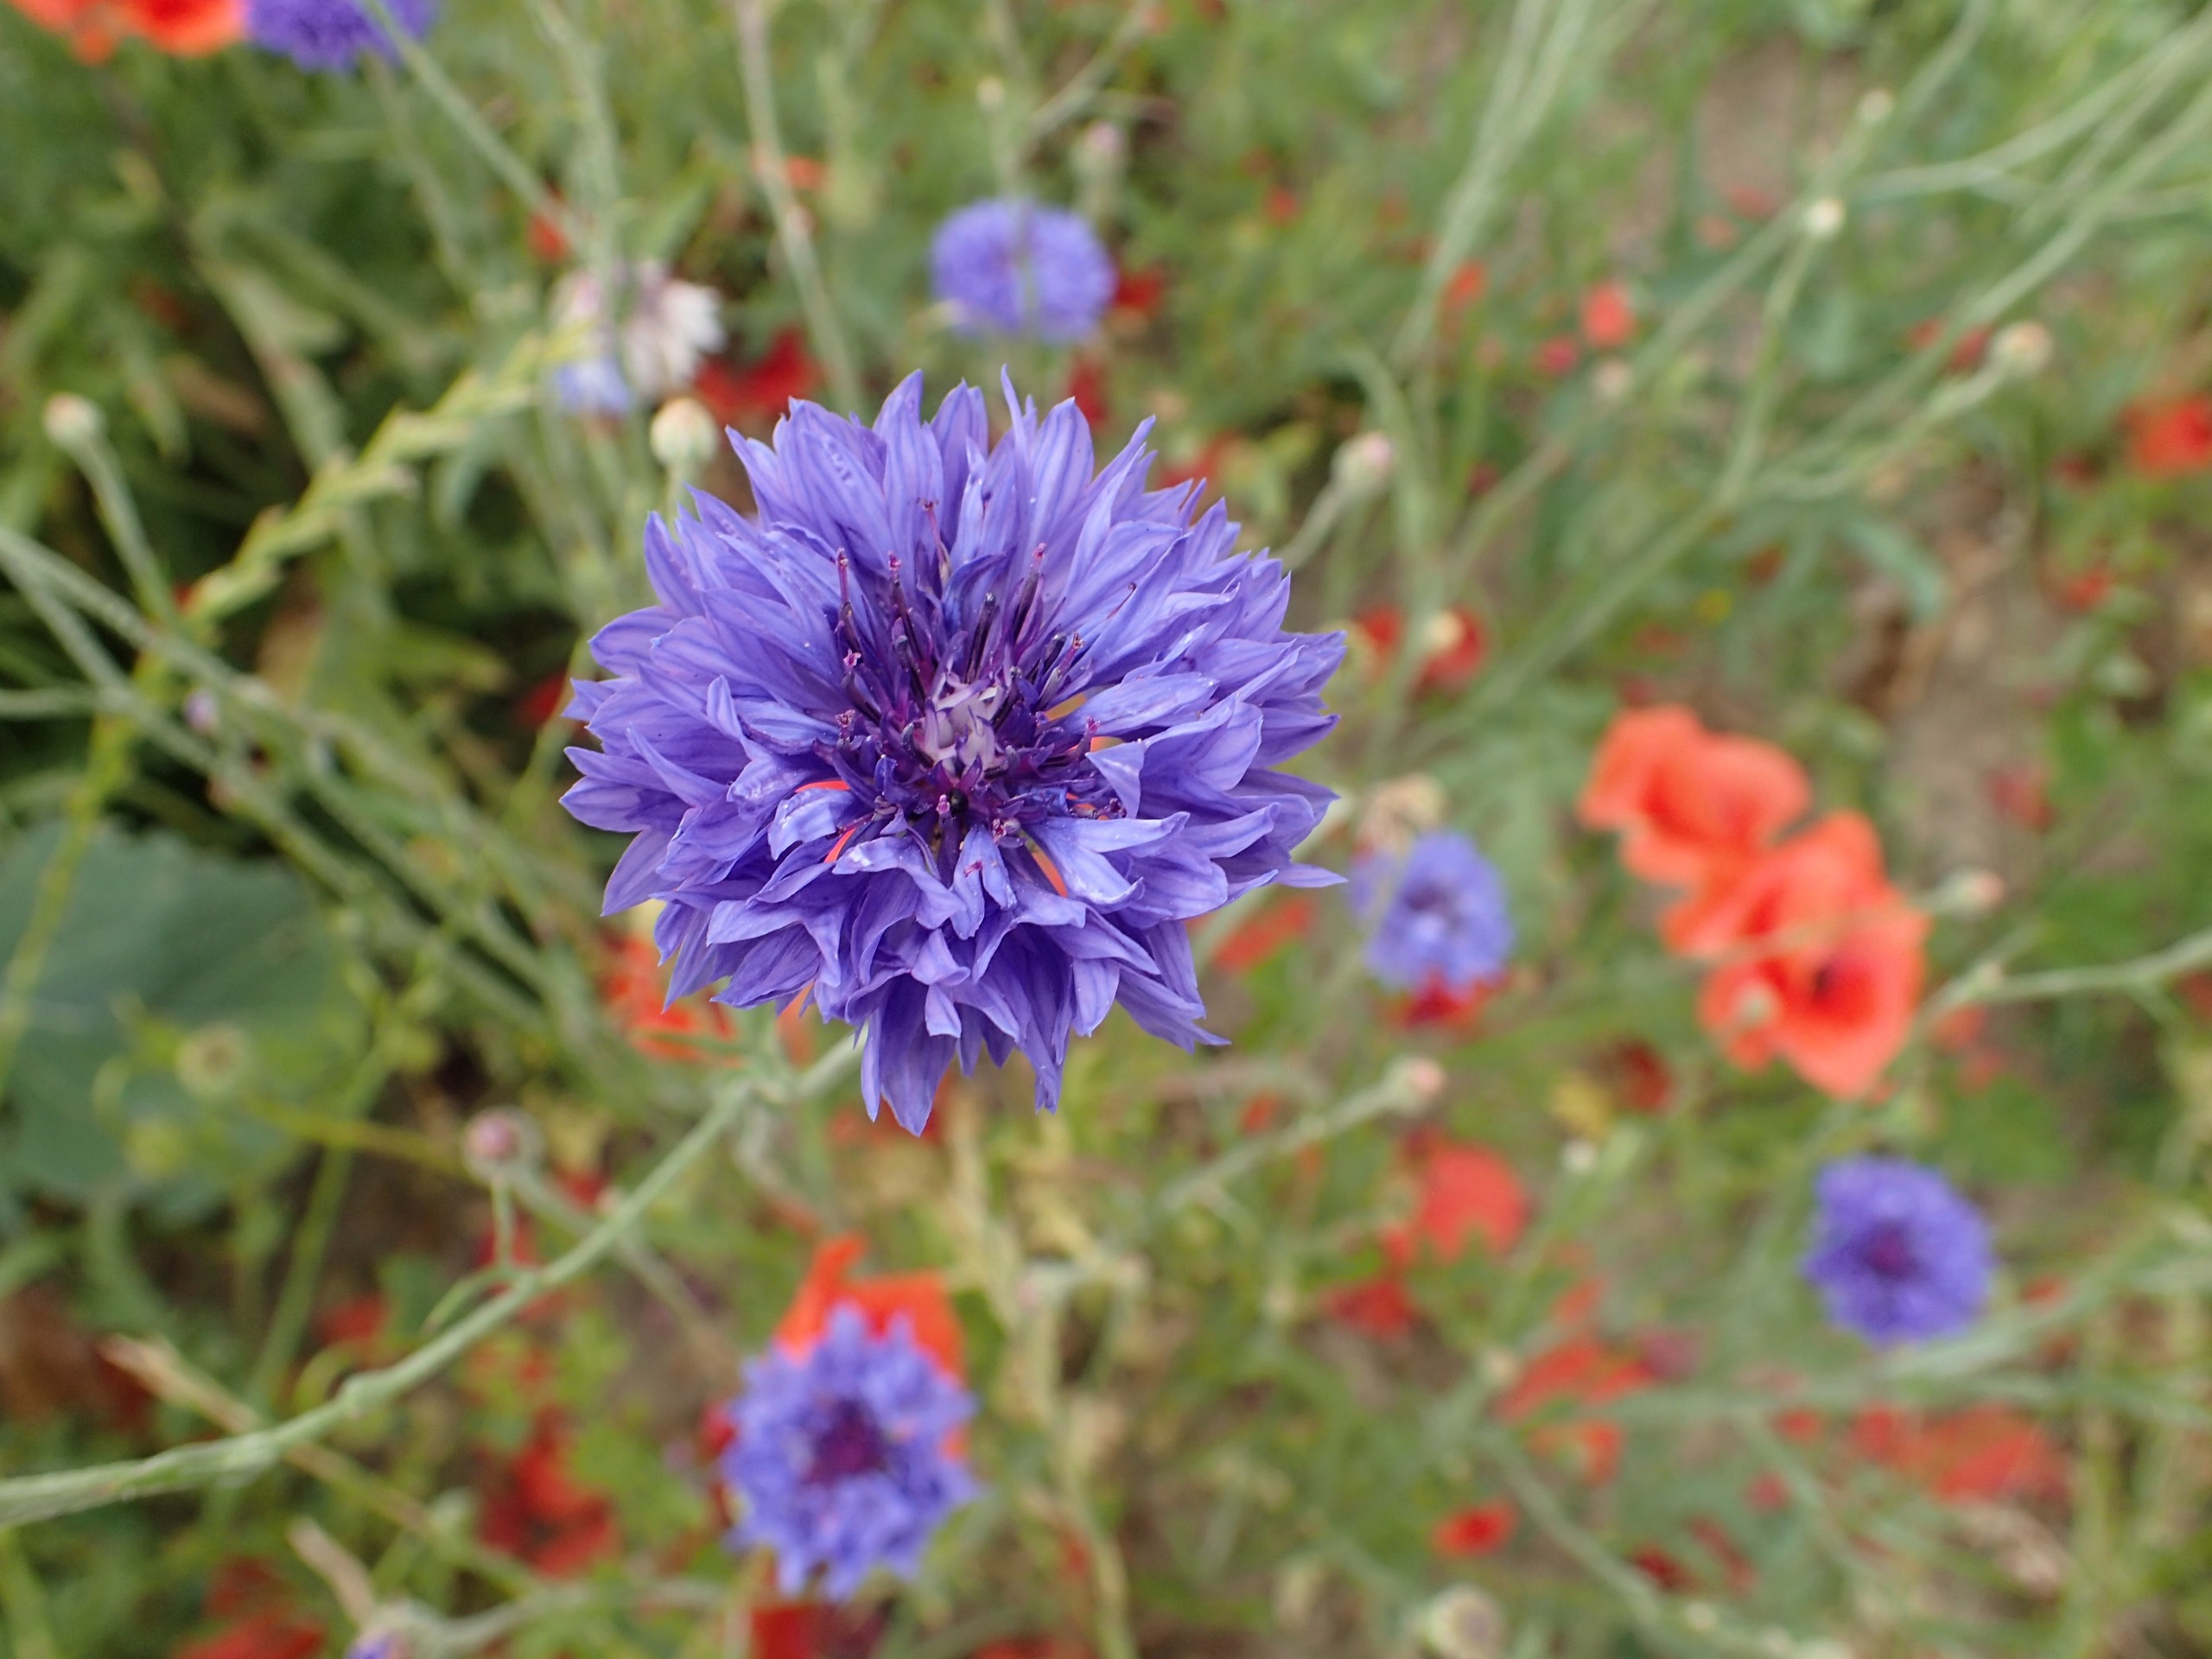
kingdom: Plantae
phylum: Tracheophyta
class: Magnoliopsida
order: Asterales
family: Asteraceae
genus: Centaurea
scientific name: Centaurea cyanus
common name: Kornblomst
